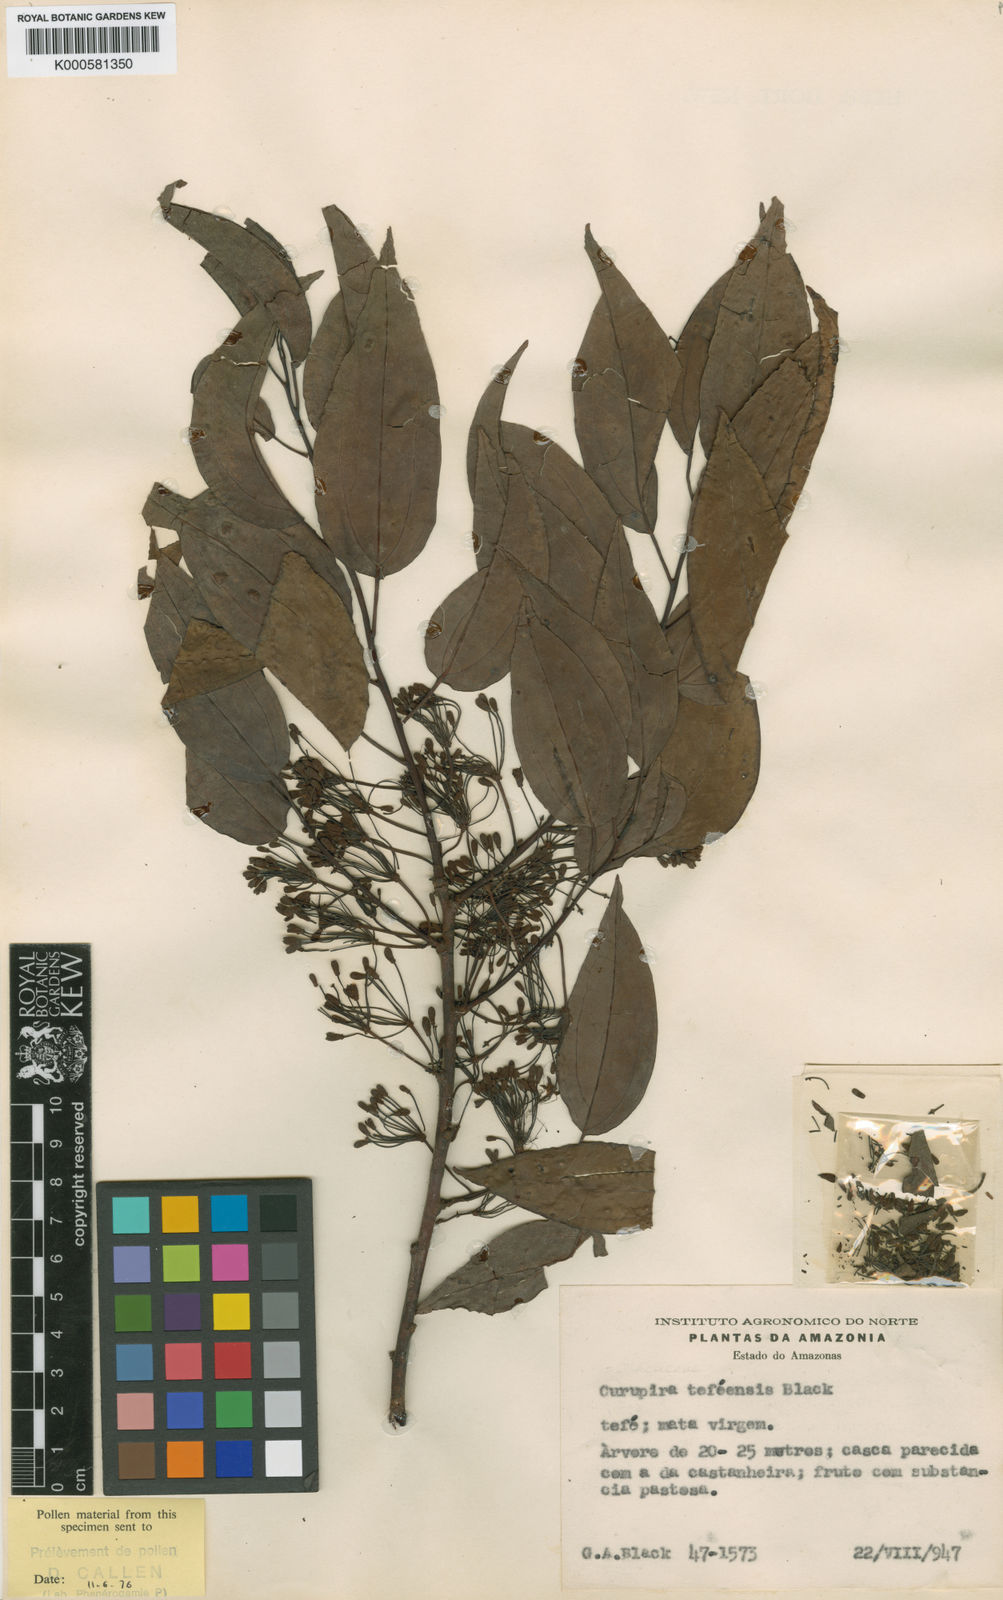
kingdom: Plantae
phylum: Tracheophyta
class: Magnoliopsida
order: Santalales
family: Ximeniaceae
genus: Curupira
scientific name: Curupira tefeensis
